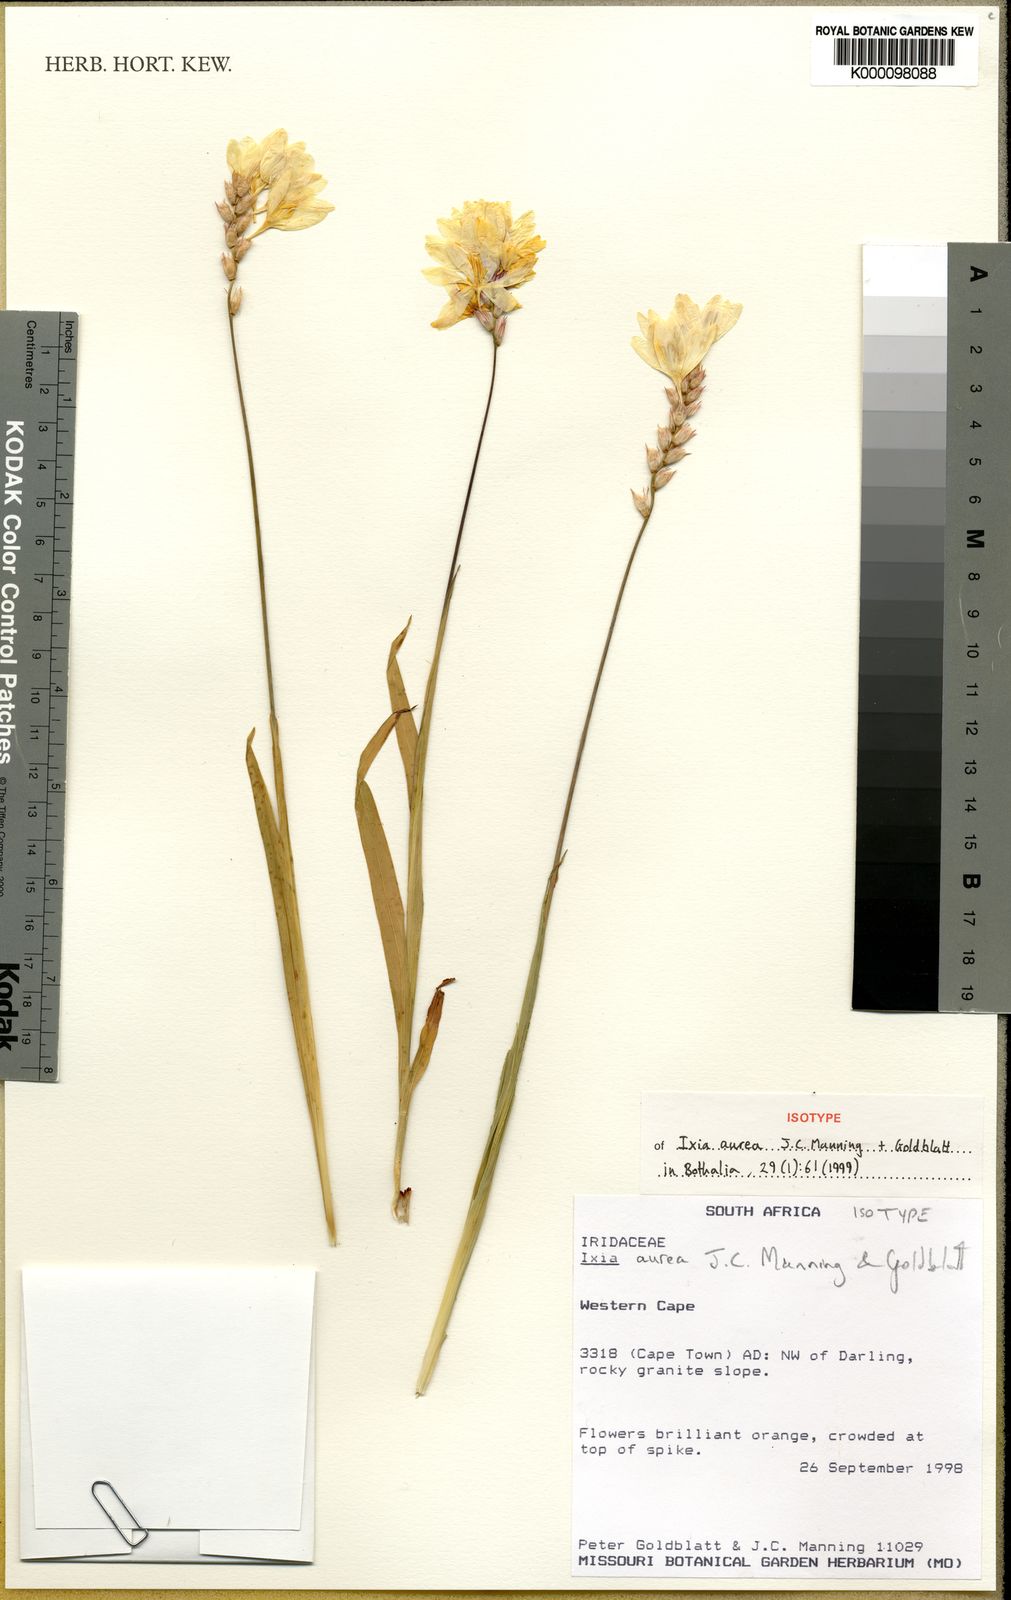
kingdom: Plantae
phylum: Tracheophyta
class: Liliopsida
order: Asparagales
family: Iridaceae
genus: Ixia
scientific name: Ixia aurea
